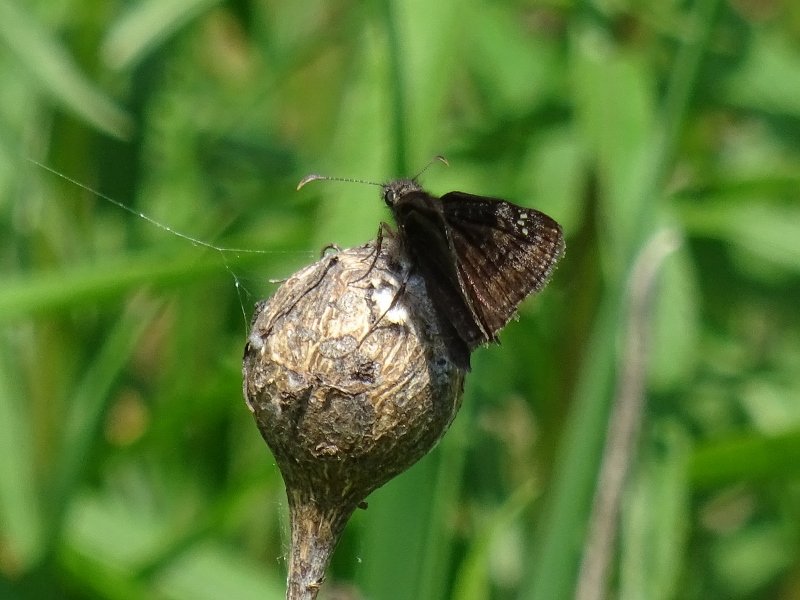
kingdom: Animalia
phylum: Arthropoda
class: Insecta
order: Lepidoptera
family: Hesperiidae
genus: Gesta
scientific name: Gesta
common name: Wild Indigo Duskywing
